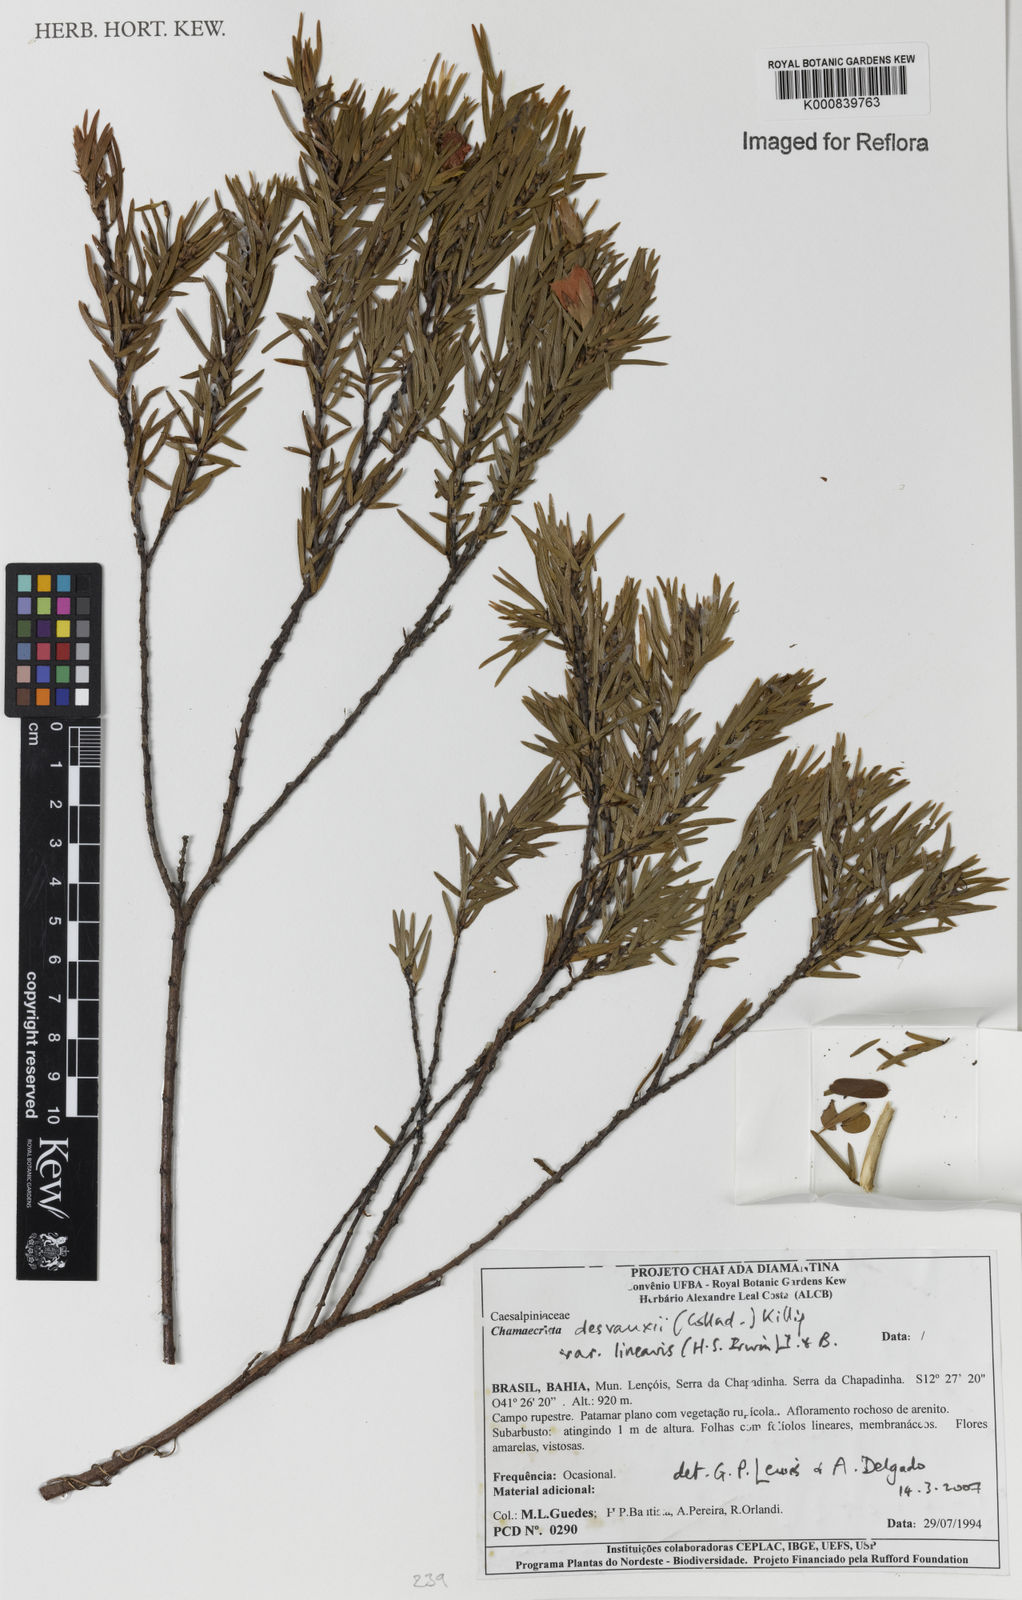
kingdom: Plantae
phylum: Tracheophyta
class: Magnoliopsida
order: Fabales
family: Fabaceae
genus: Chamaecrista
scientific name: Chamaecrista desvauxii
